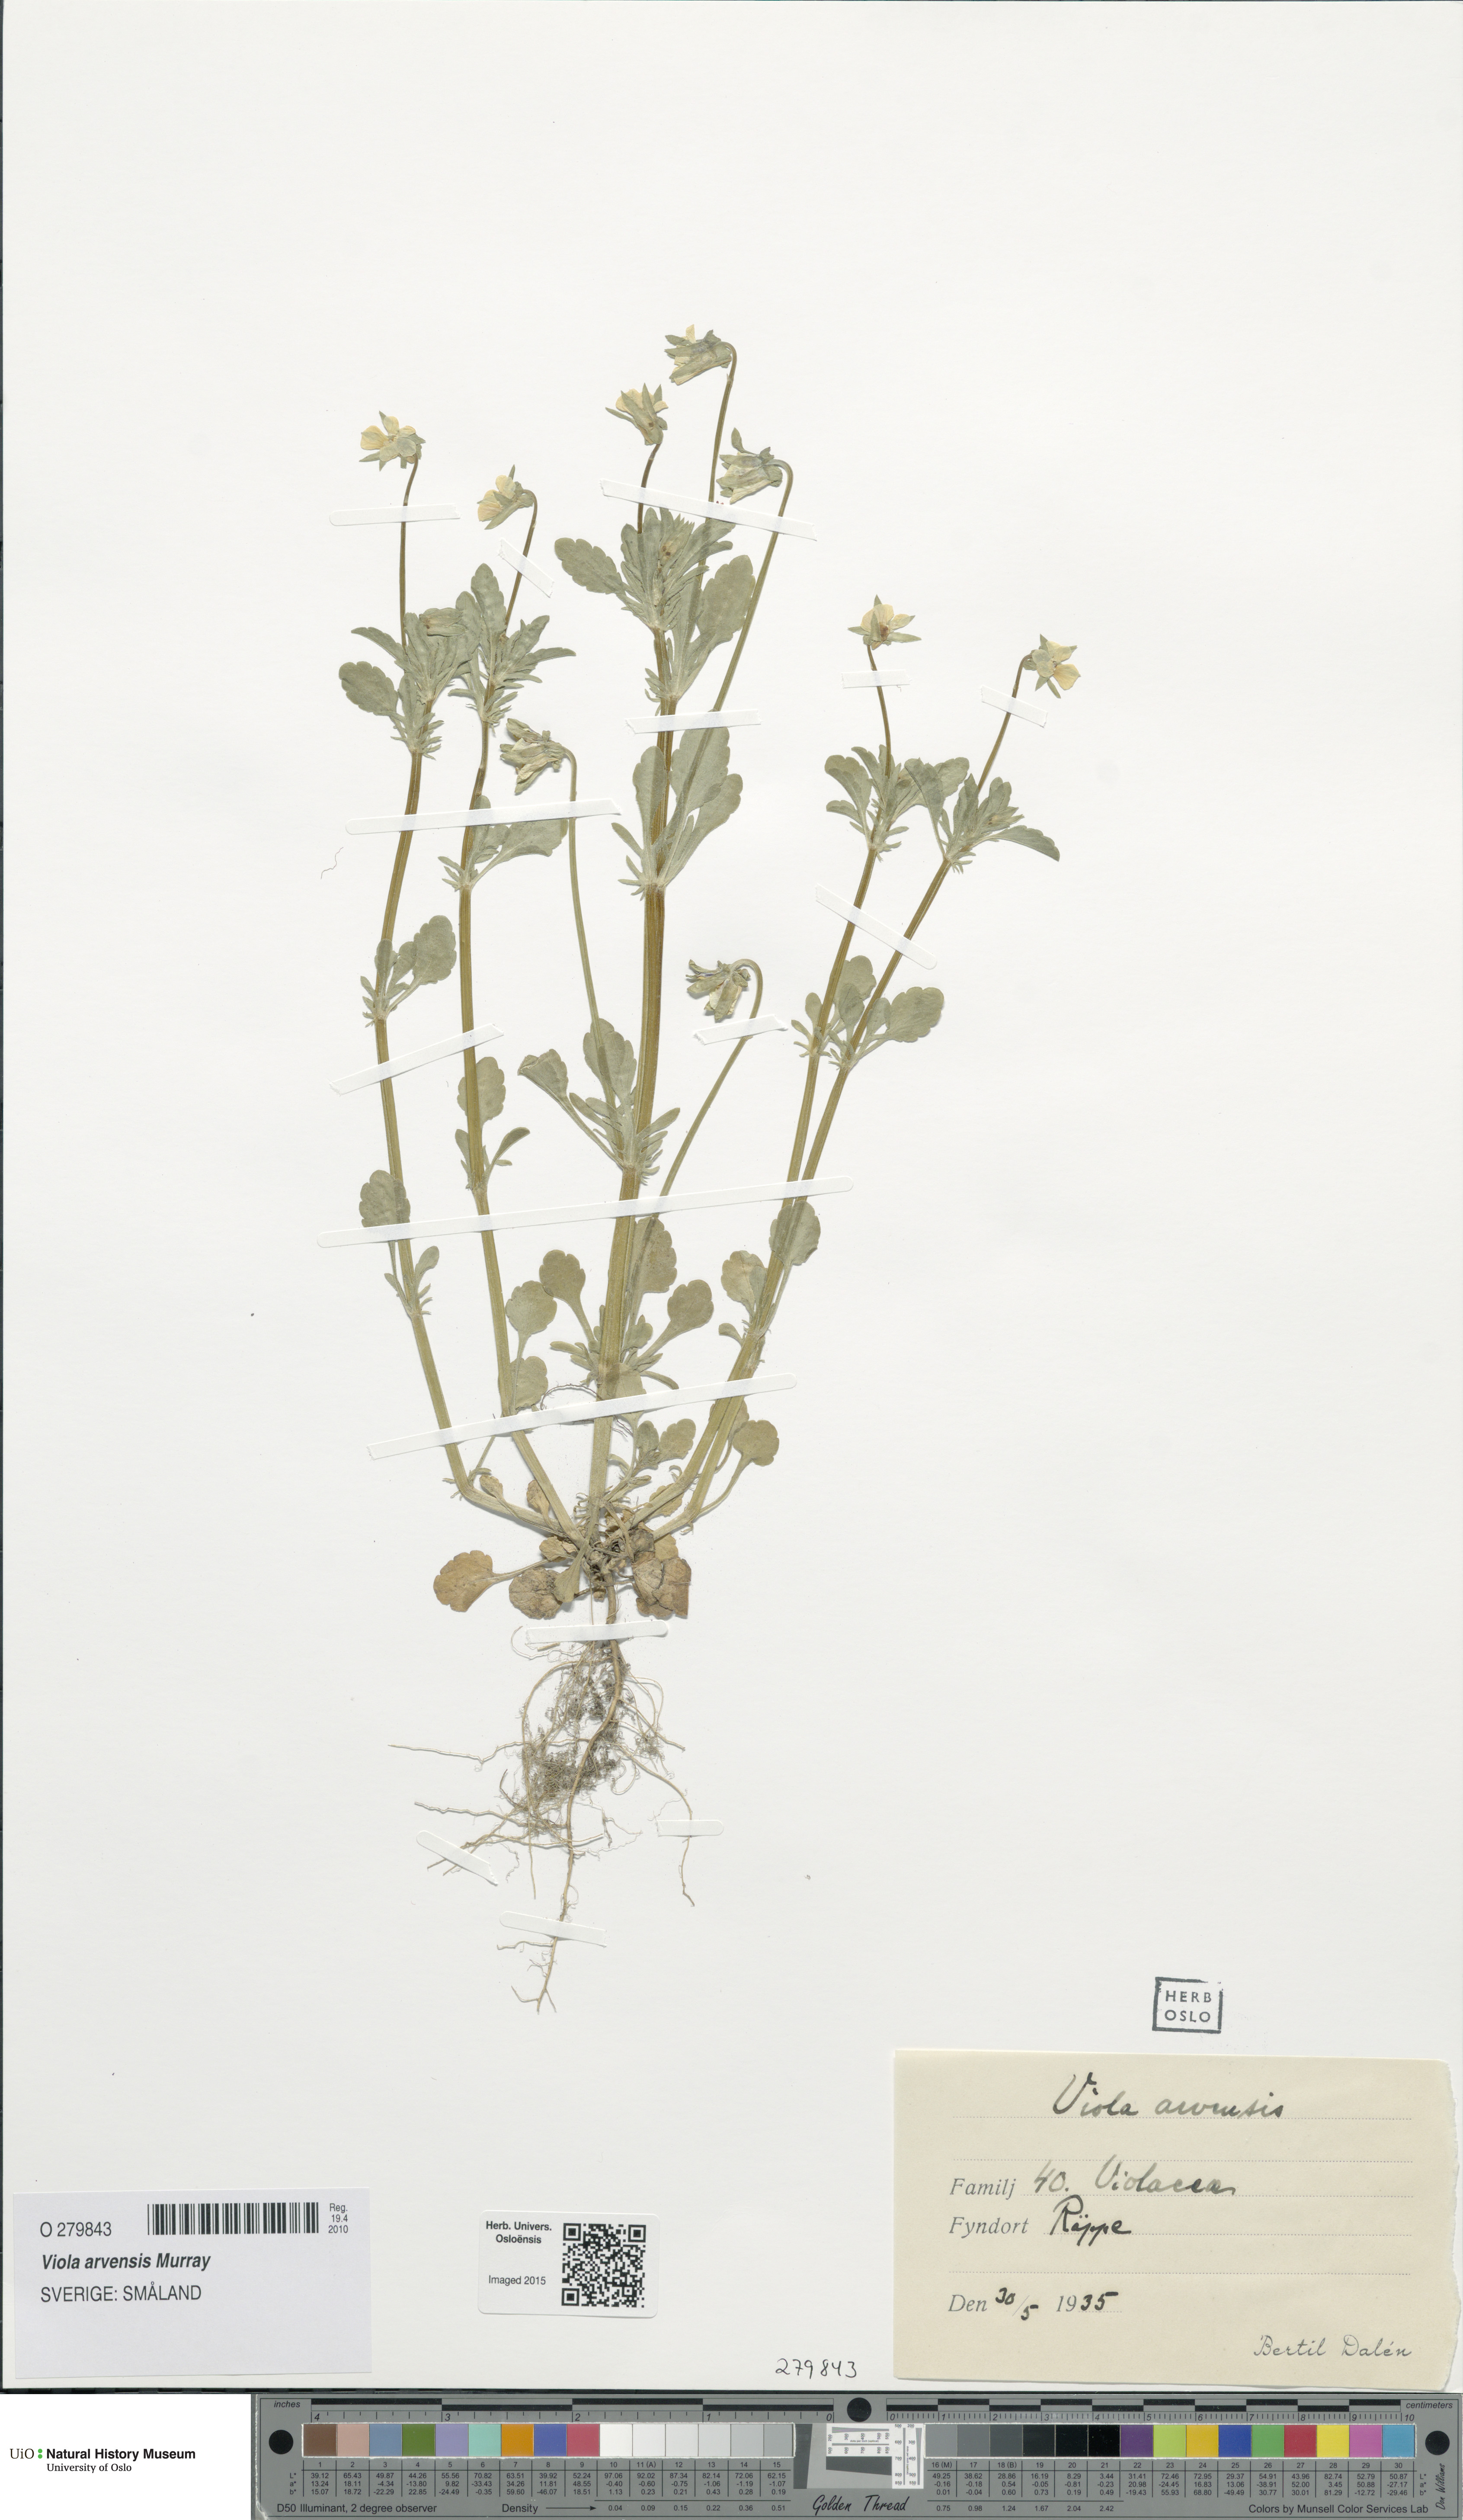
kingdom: Plantae
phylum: Tracheophyta
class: Magnoliopsida
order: Malpighiales
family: Violaceae
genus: Viola
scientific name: Viola arvensis
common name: Field pansy
